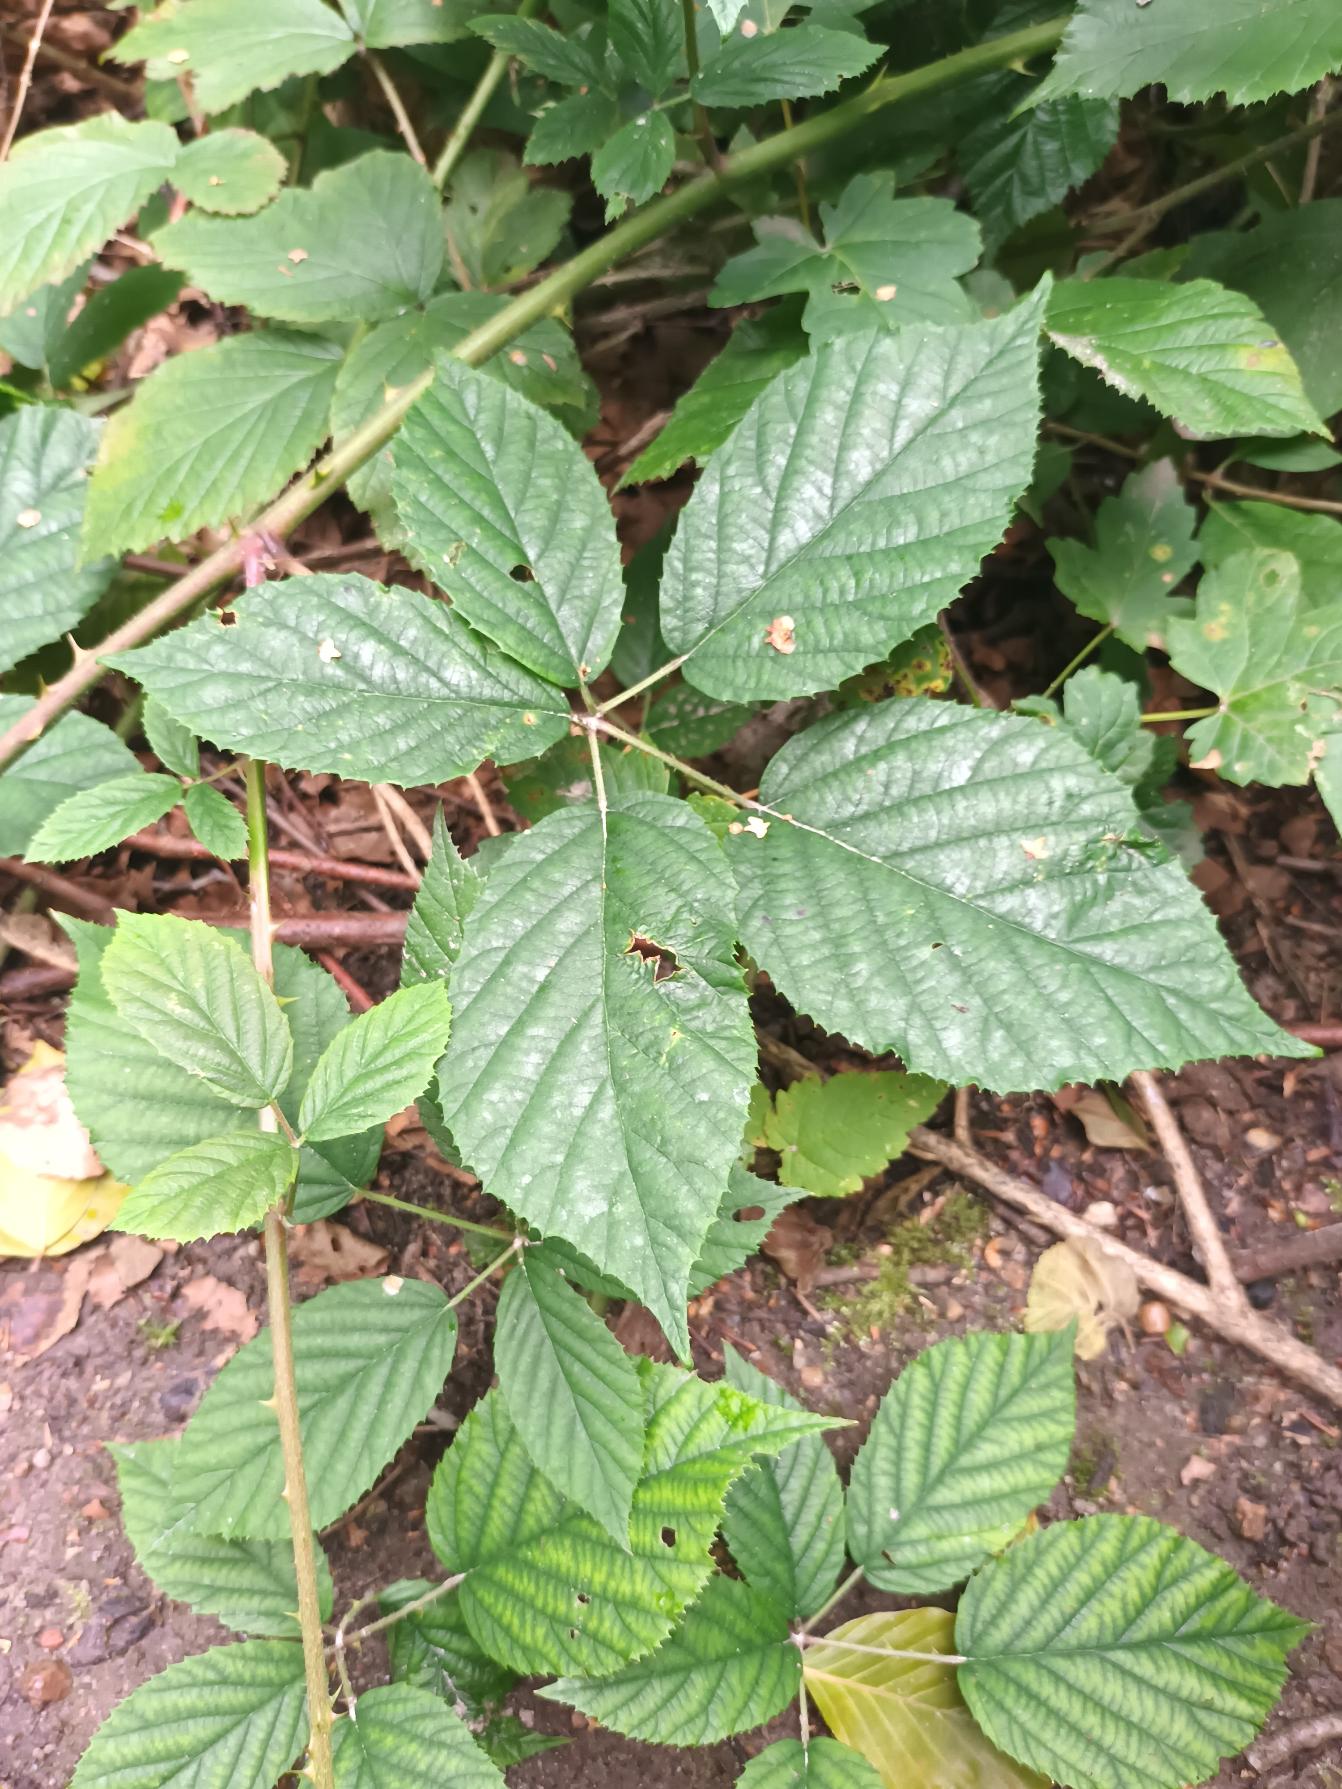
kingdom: Plantae
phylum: Tracheophyta
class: Magnoliopsida
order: Rosales
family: Rosaceae
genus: Rubus
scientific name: Rubus radula
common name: Rasperu brombær
